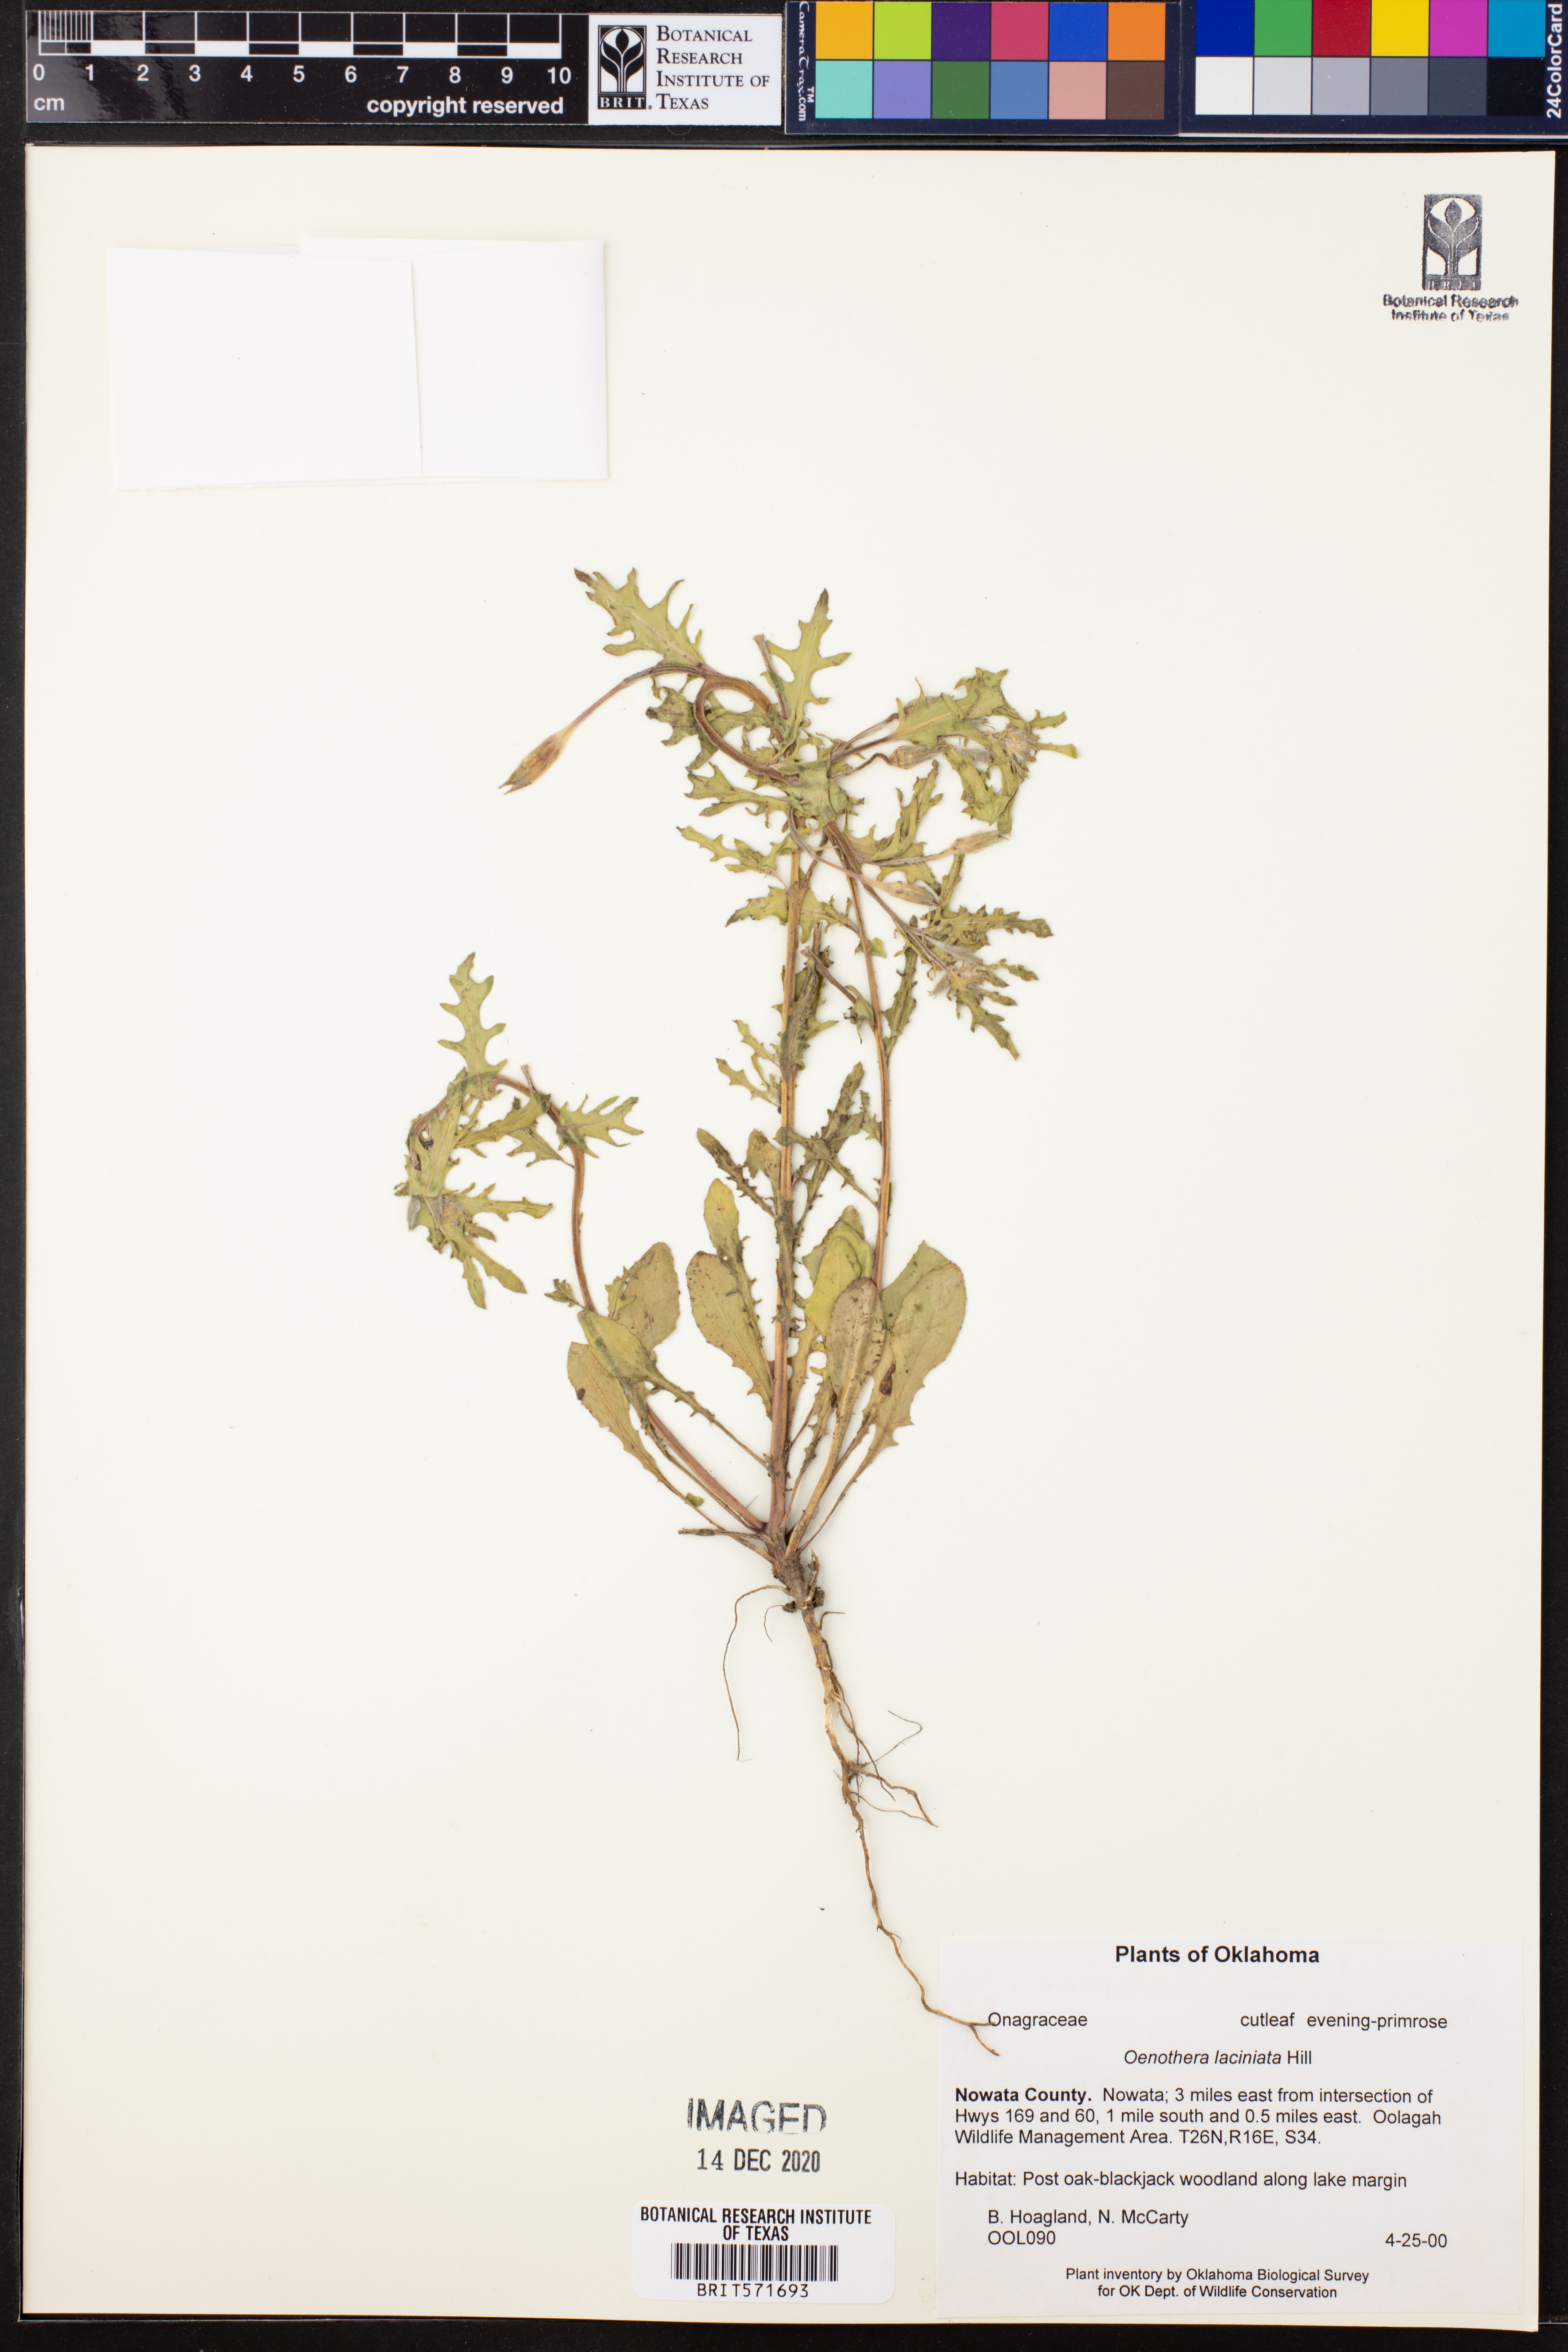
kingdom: Plantae
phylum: Tracheophyta
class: Magnoliopsida
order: Myrtales
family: Onagraceae
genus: Oenothera
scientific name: Oenothera laciniata
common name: Cut-leaved evening-primrose
